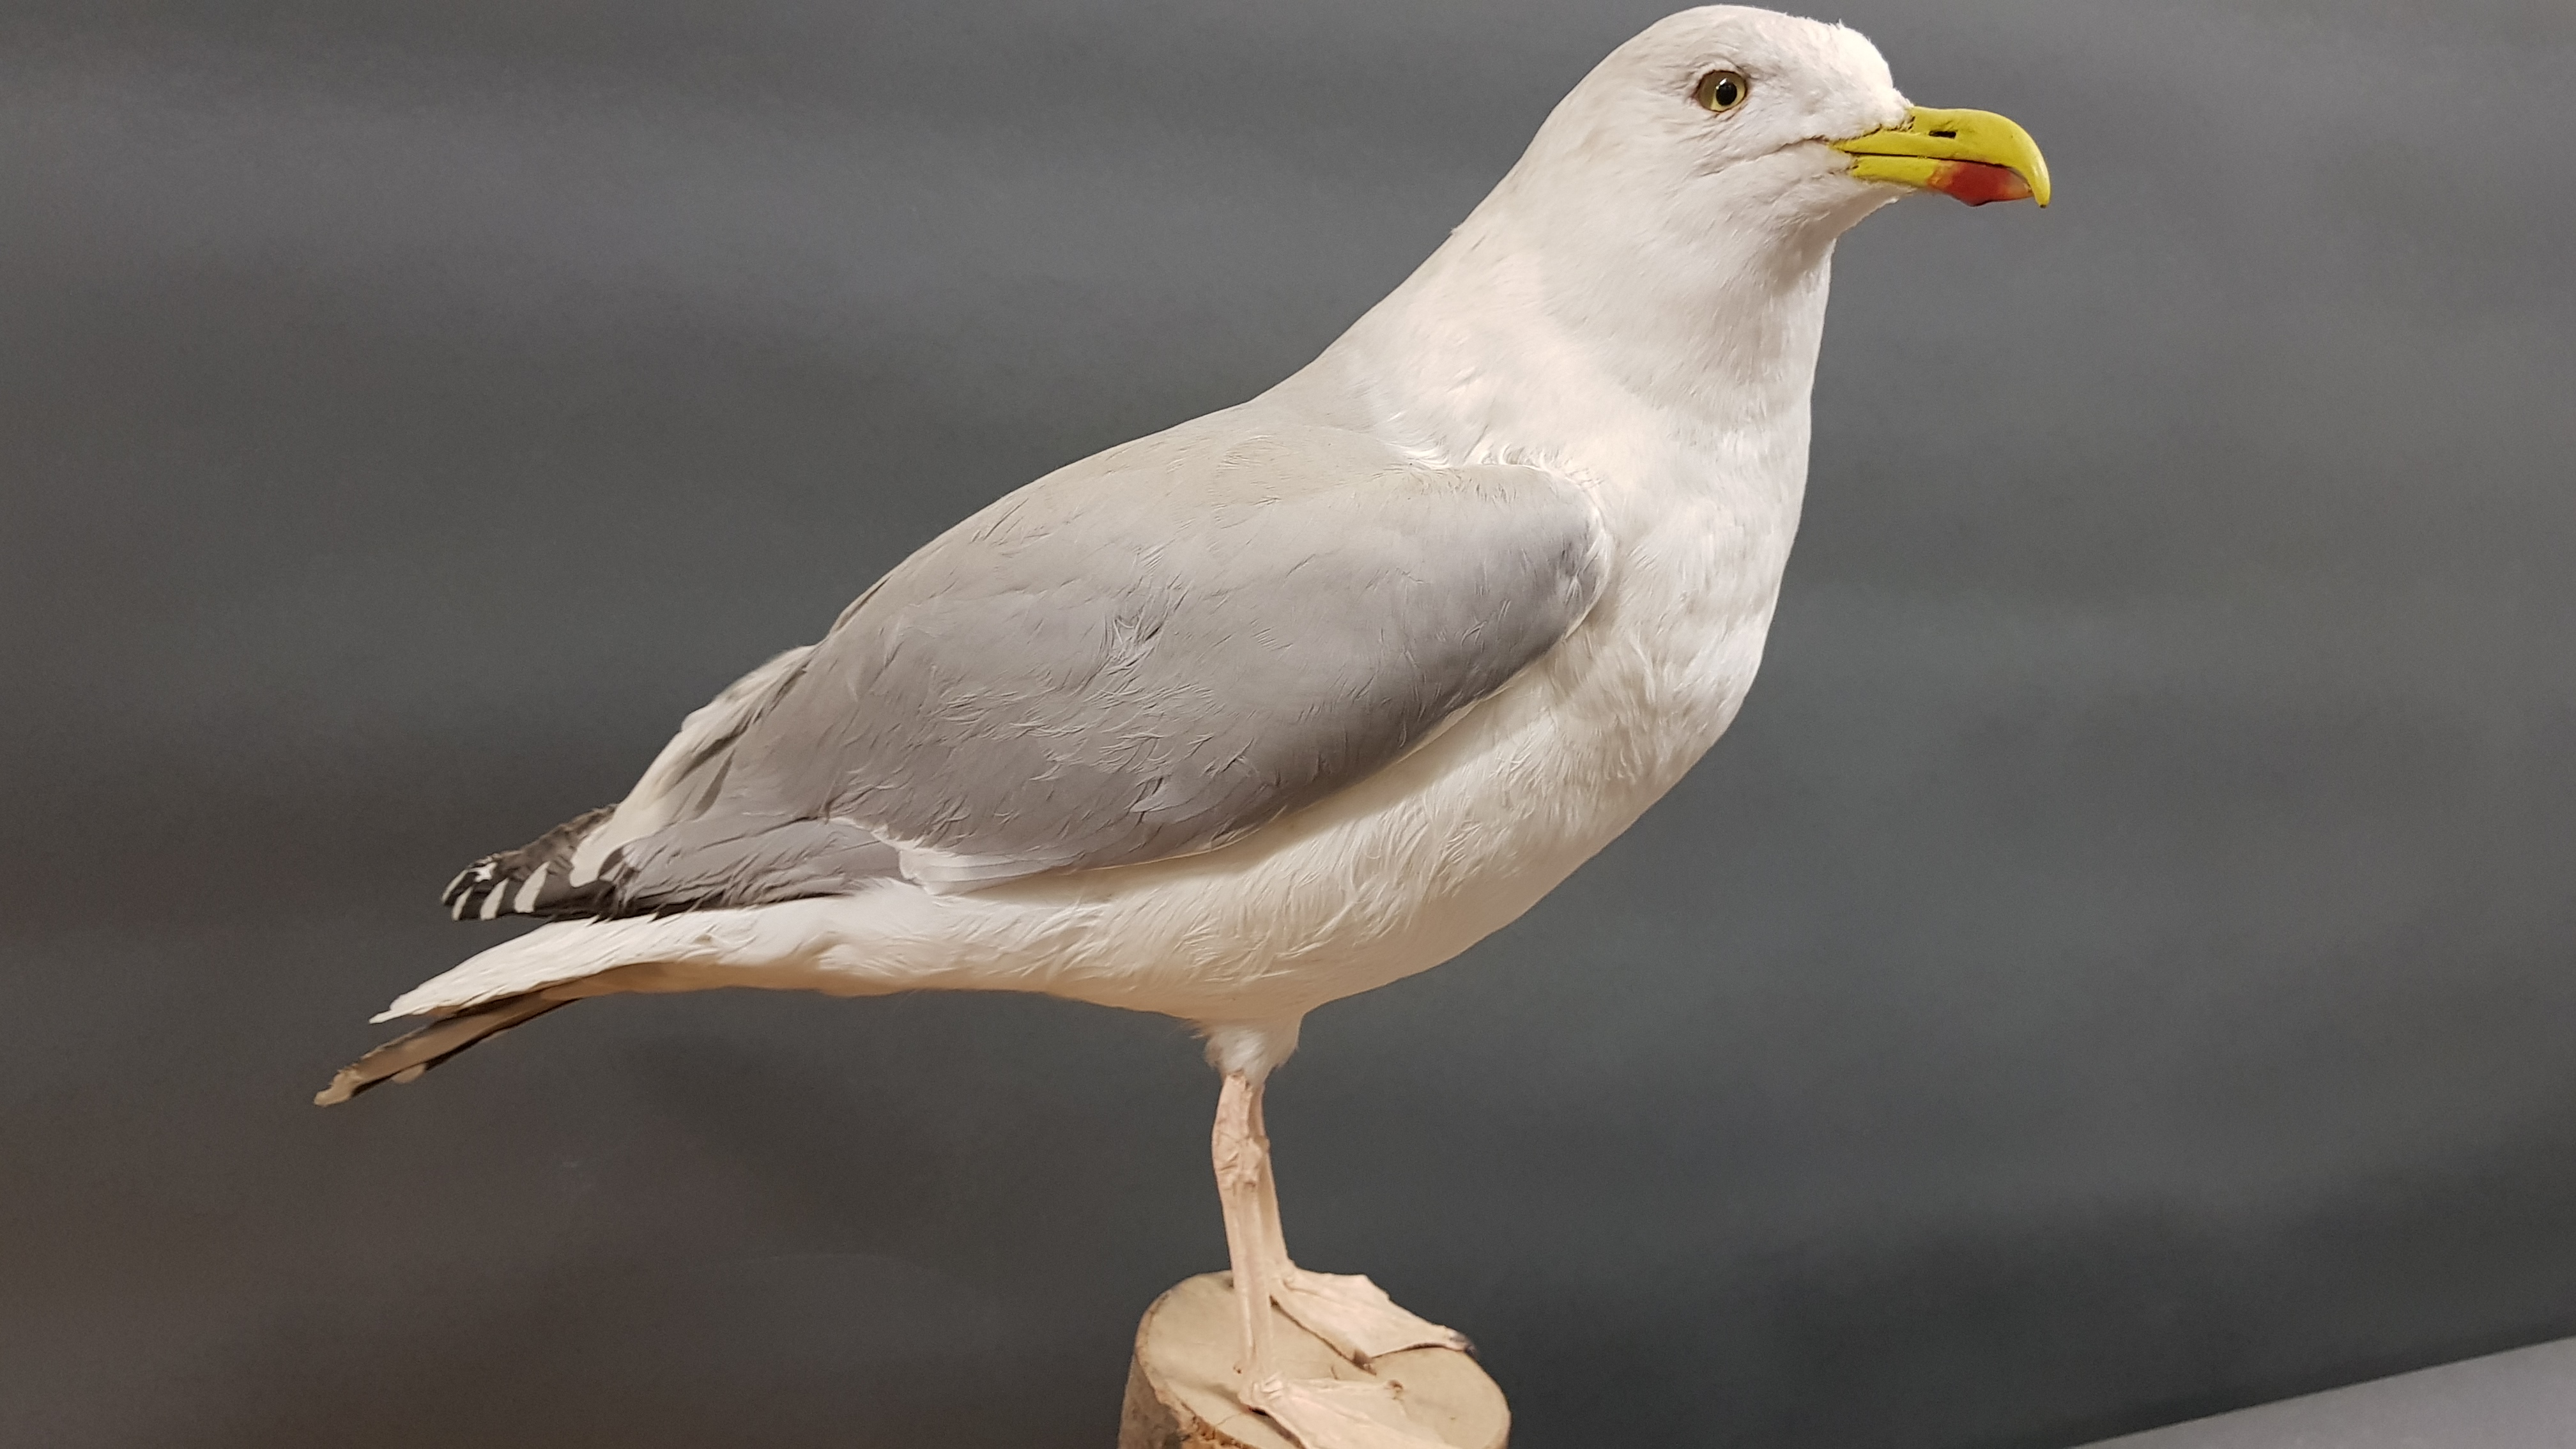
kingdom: Animalia
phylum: Chordata
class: Aves
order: Charadriiformes
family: Laridae
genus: Larus
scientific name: Larus argentatus
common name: Herring gull
